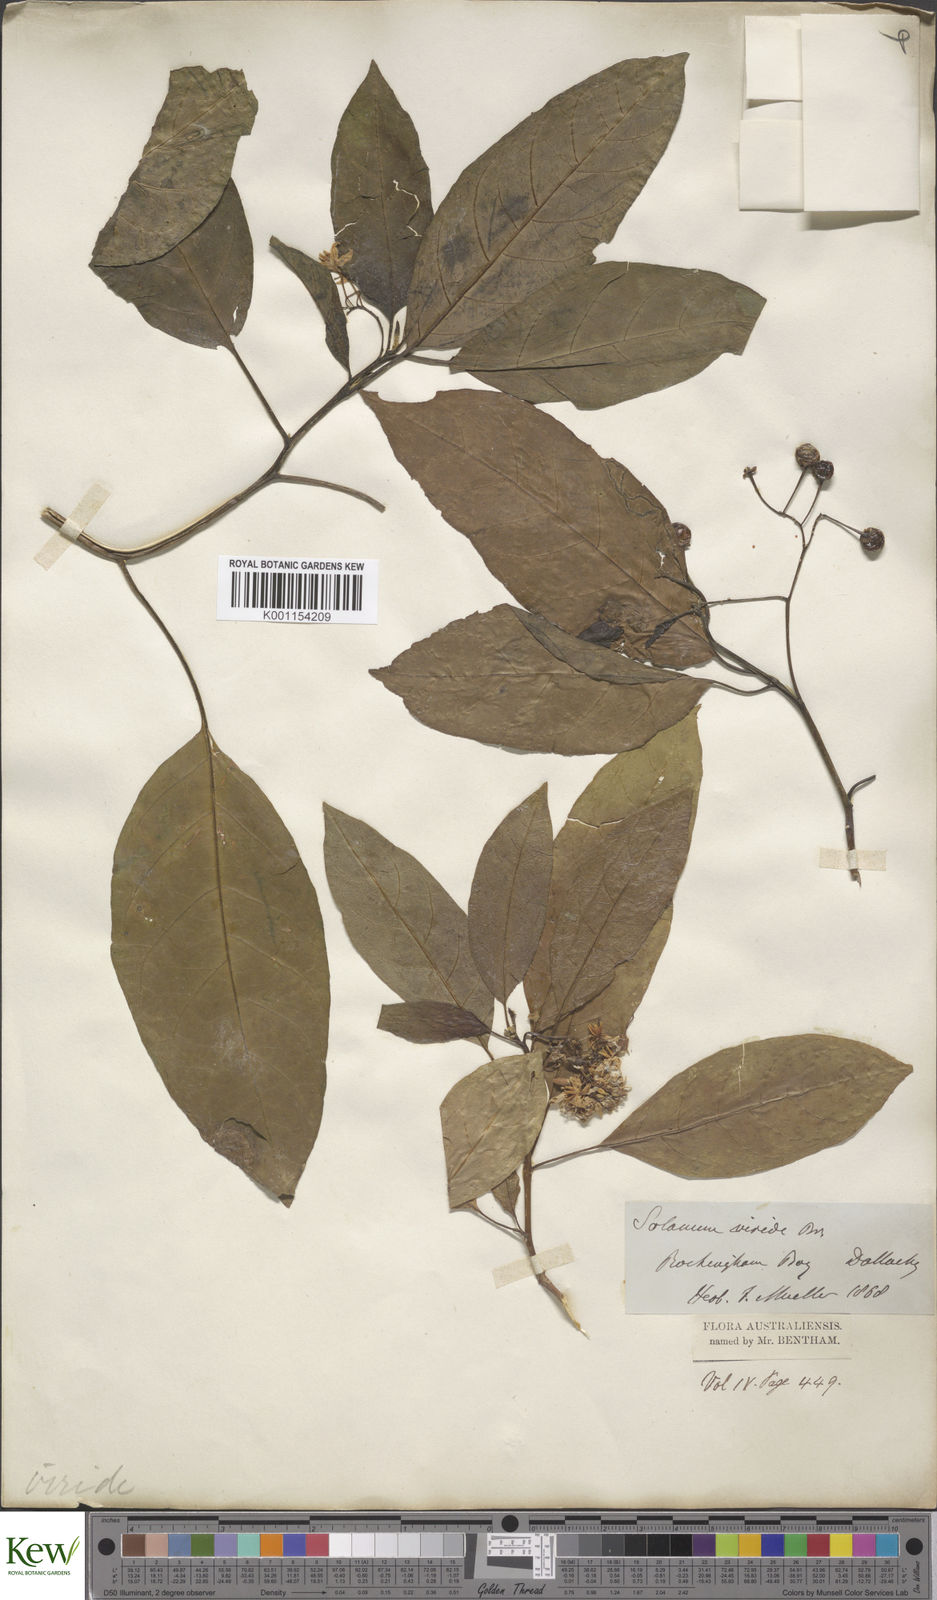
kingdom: Plantae
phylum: Tracheophyta
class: Magnoliopsida
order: Solanales
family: Solanaceae
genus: Solanum
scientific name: Solanum viridifolium
